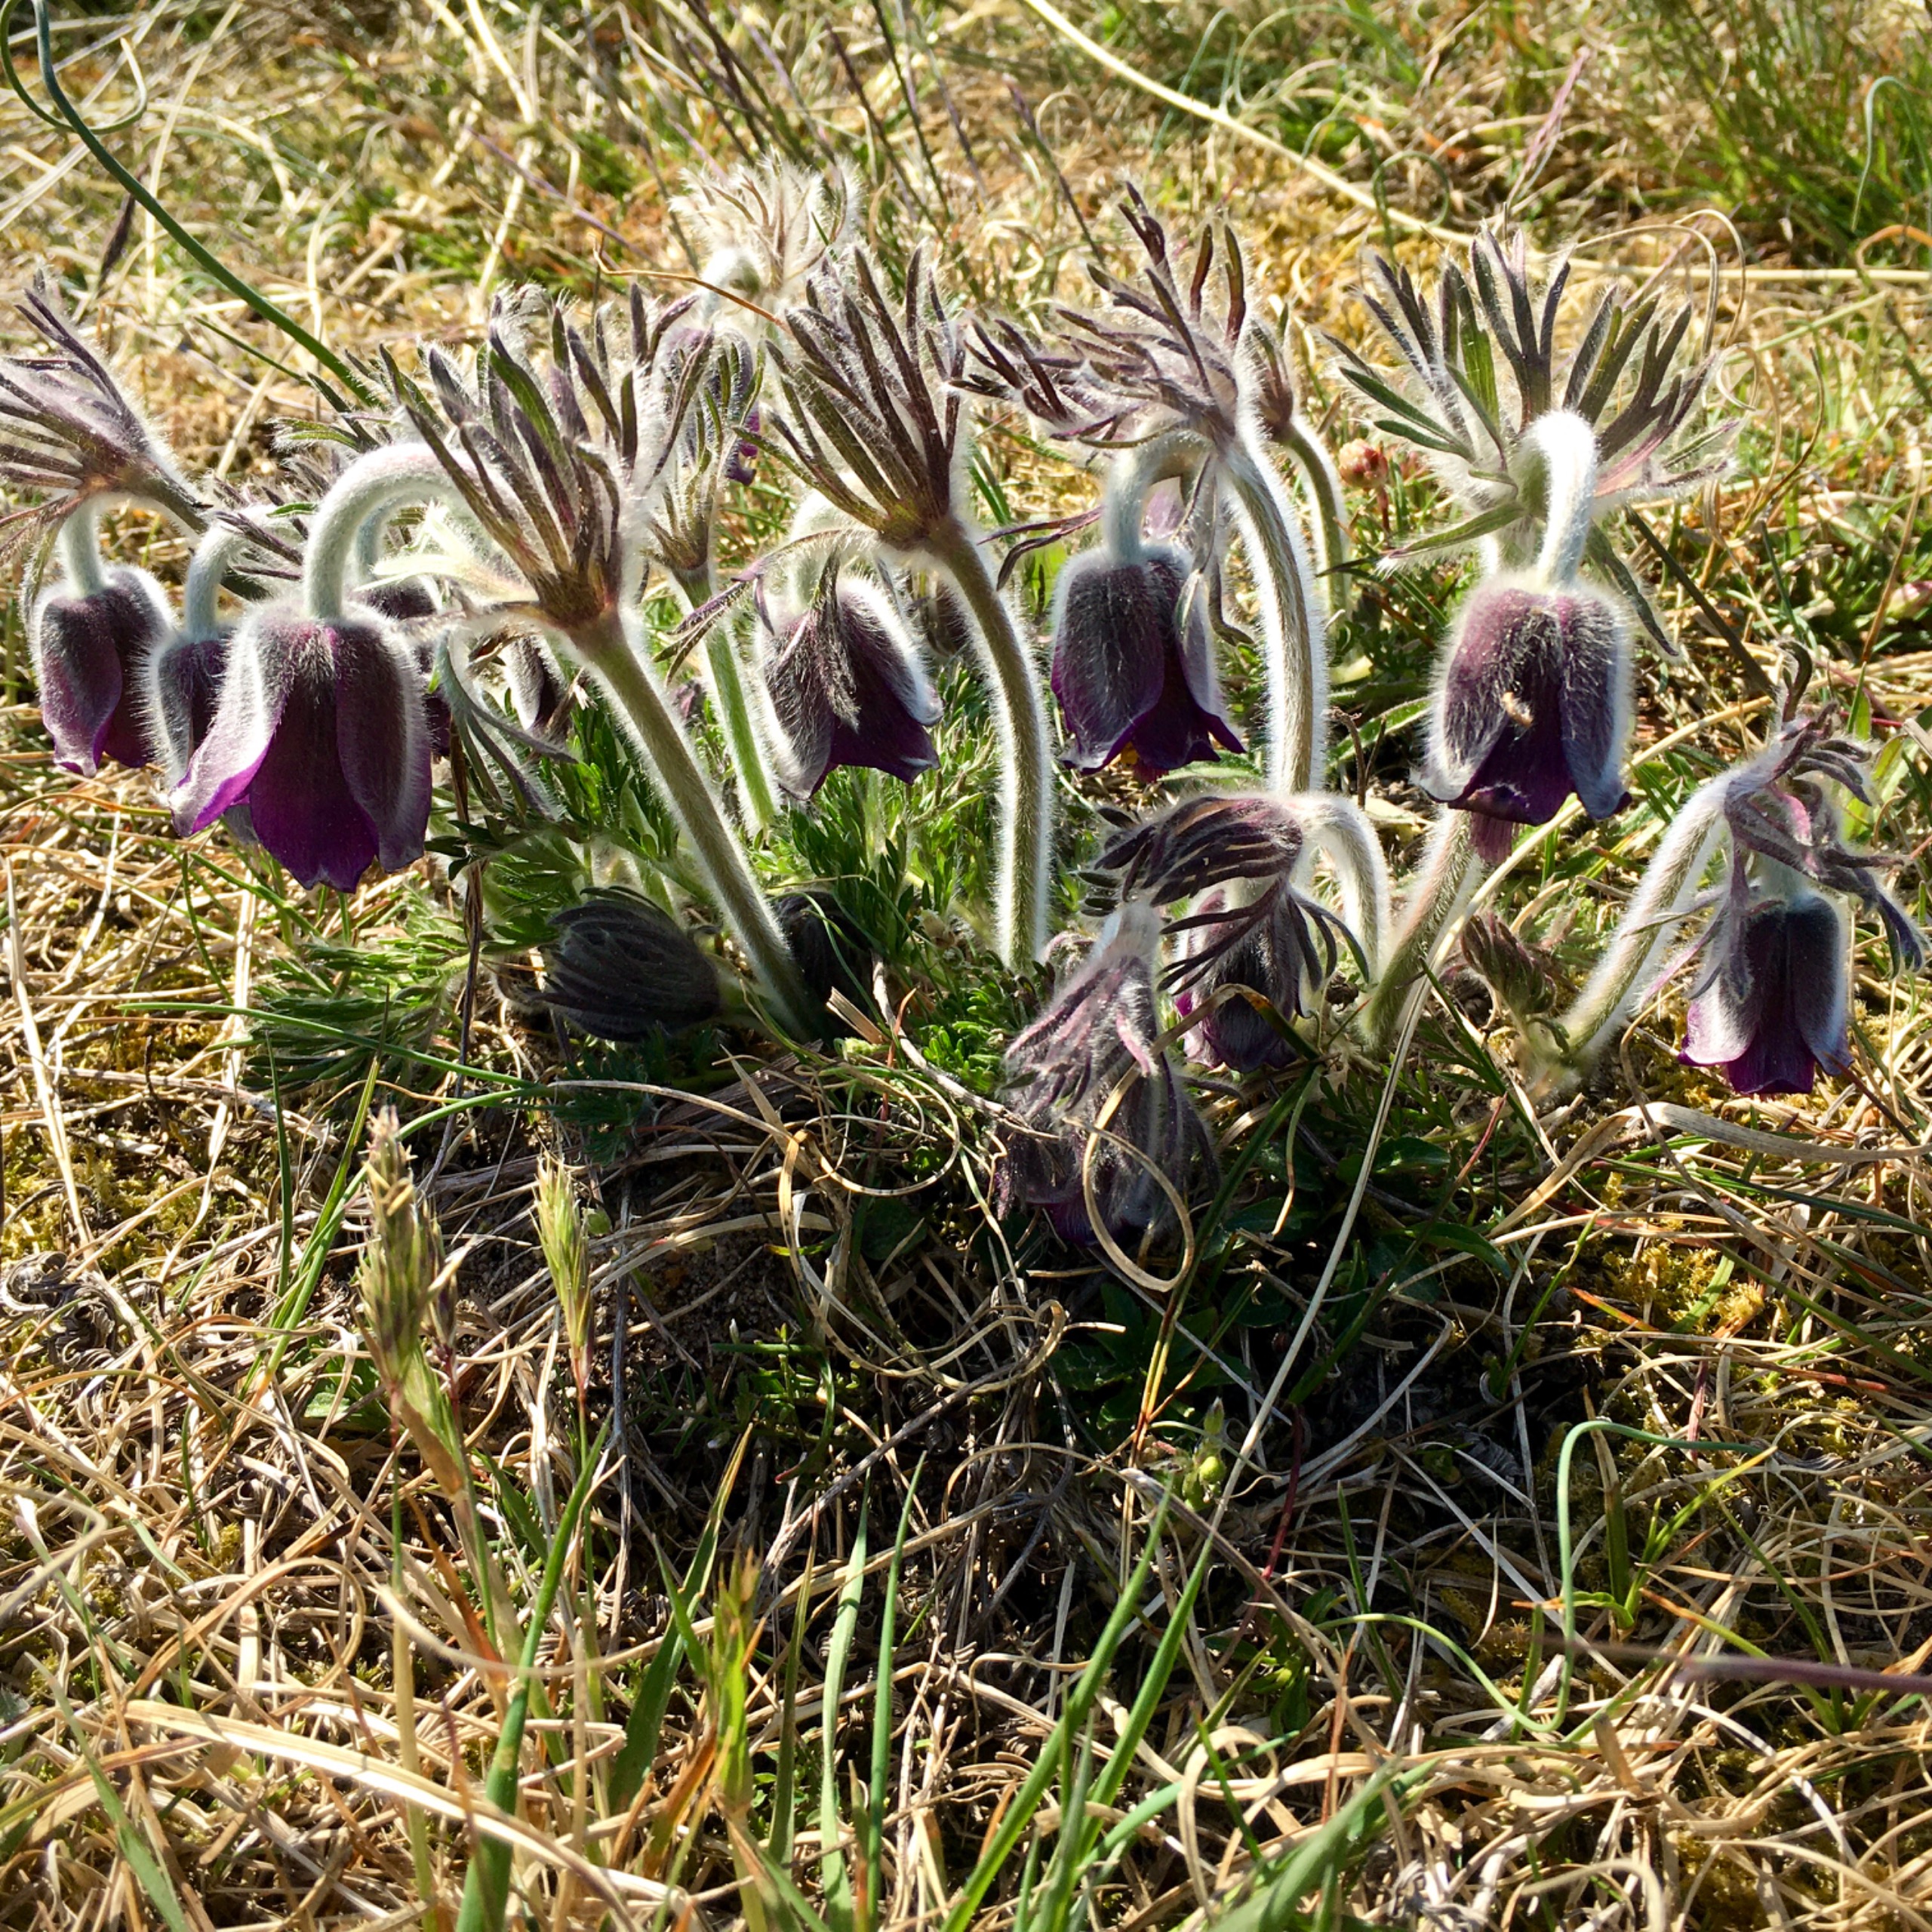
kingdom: Plantae
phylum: Tracheophyta
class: Magnoliopsida
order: Ranunculales
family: Ranunculaceae
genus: Pulsatilla
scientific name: Pulsatilla pratensis
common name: Nikkende kobjælde
